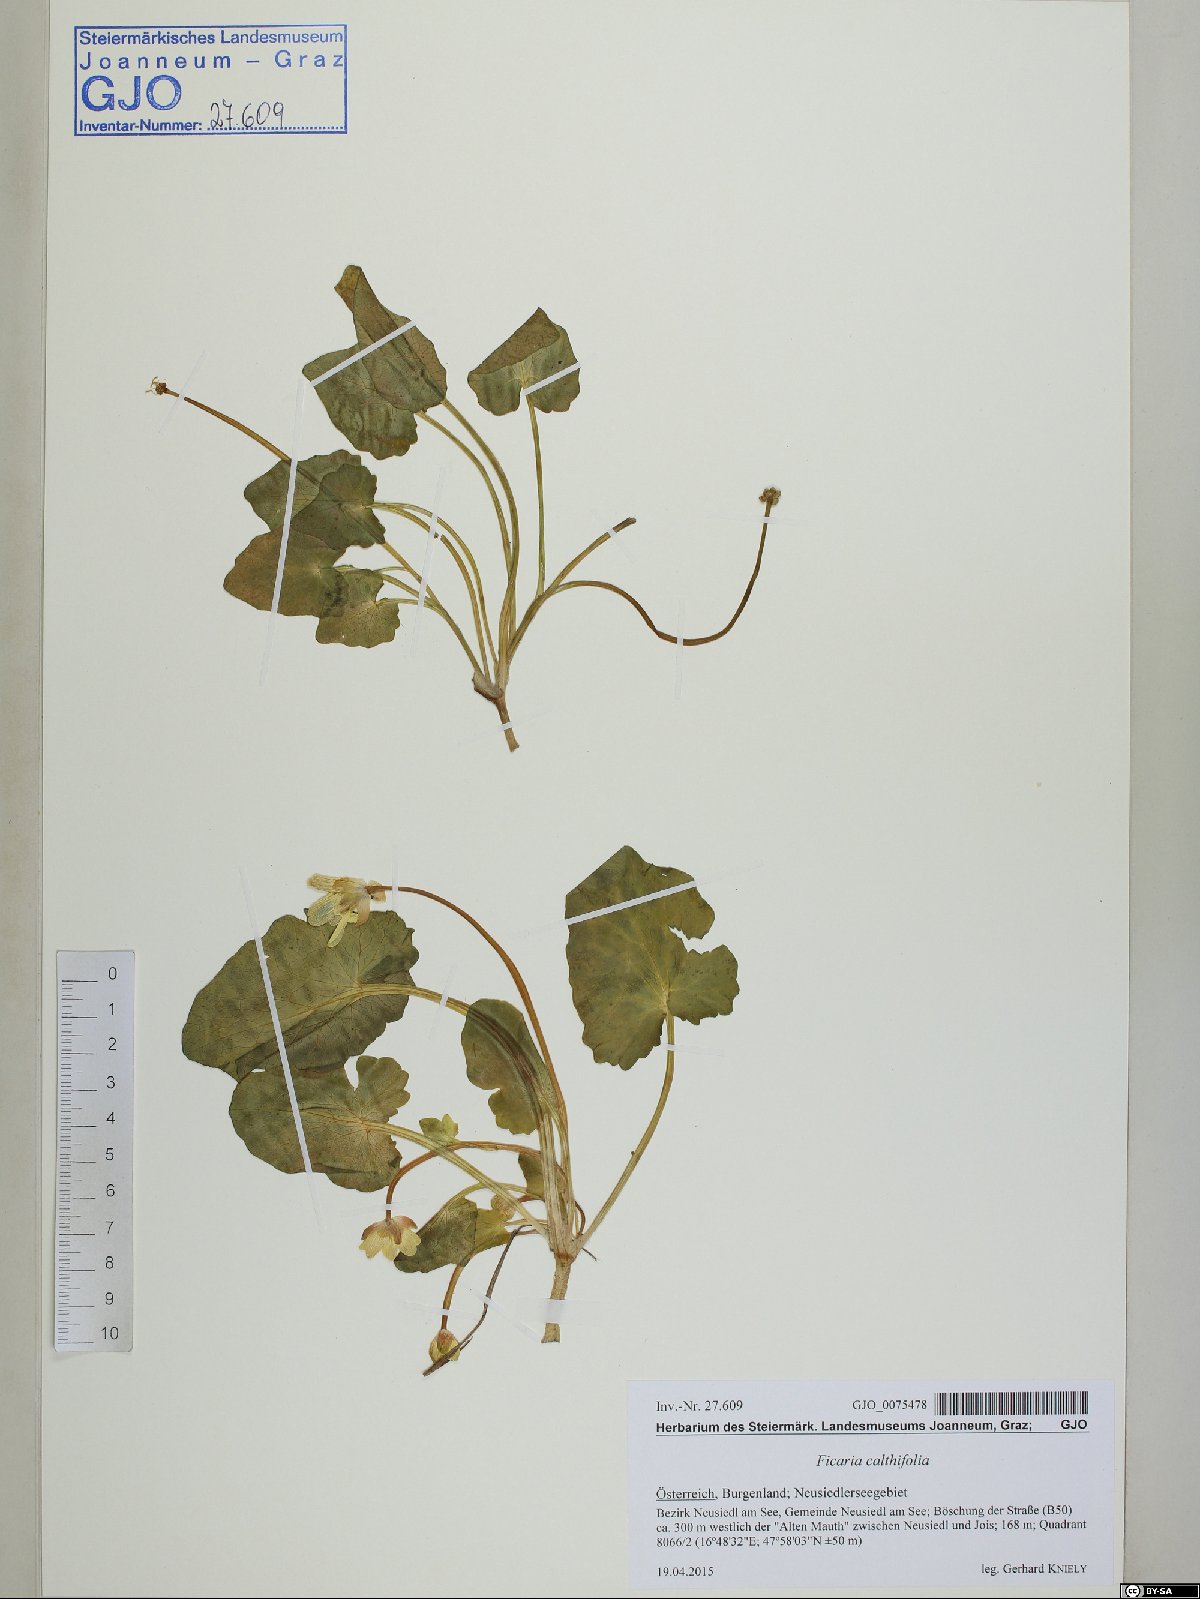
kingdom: Plantae
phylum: Tracheophyta
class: Magnoliopsida
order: Ranunculales
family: Ranunculaceae
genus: Ficaria
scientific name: Ficaria calthifolia
